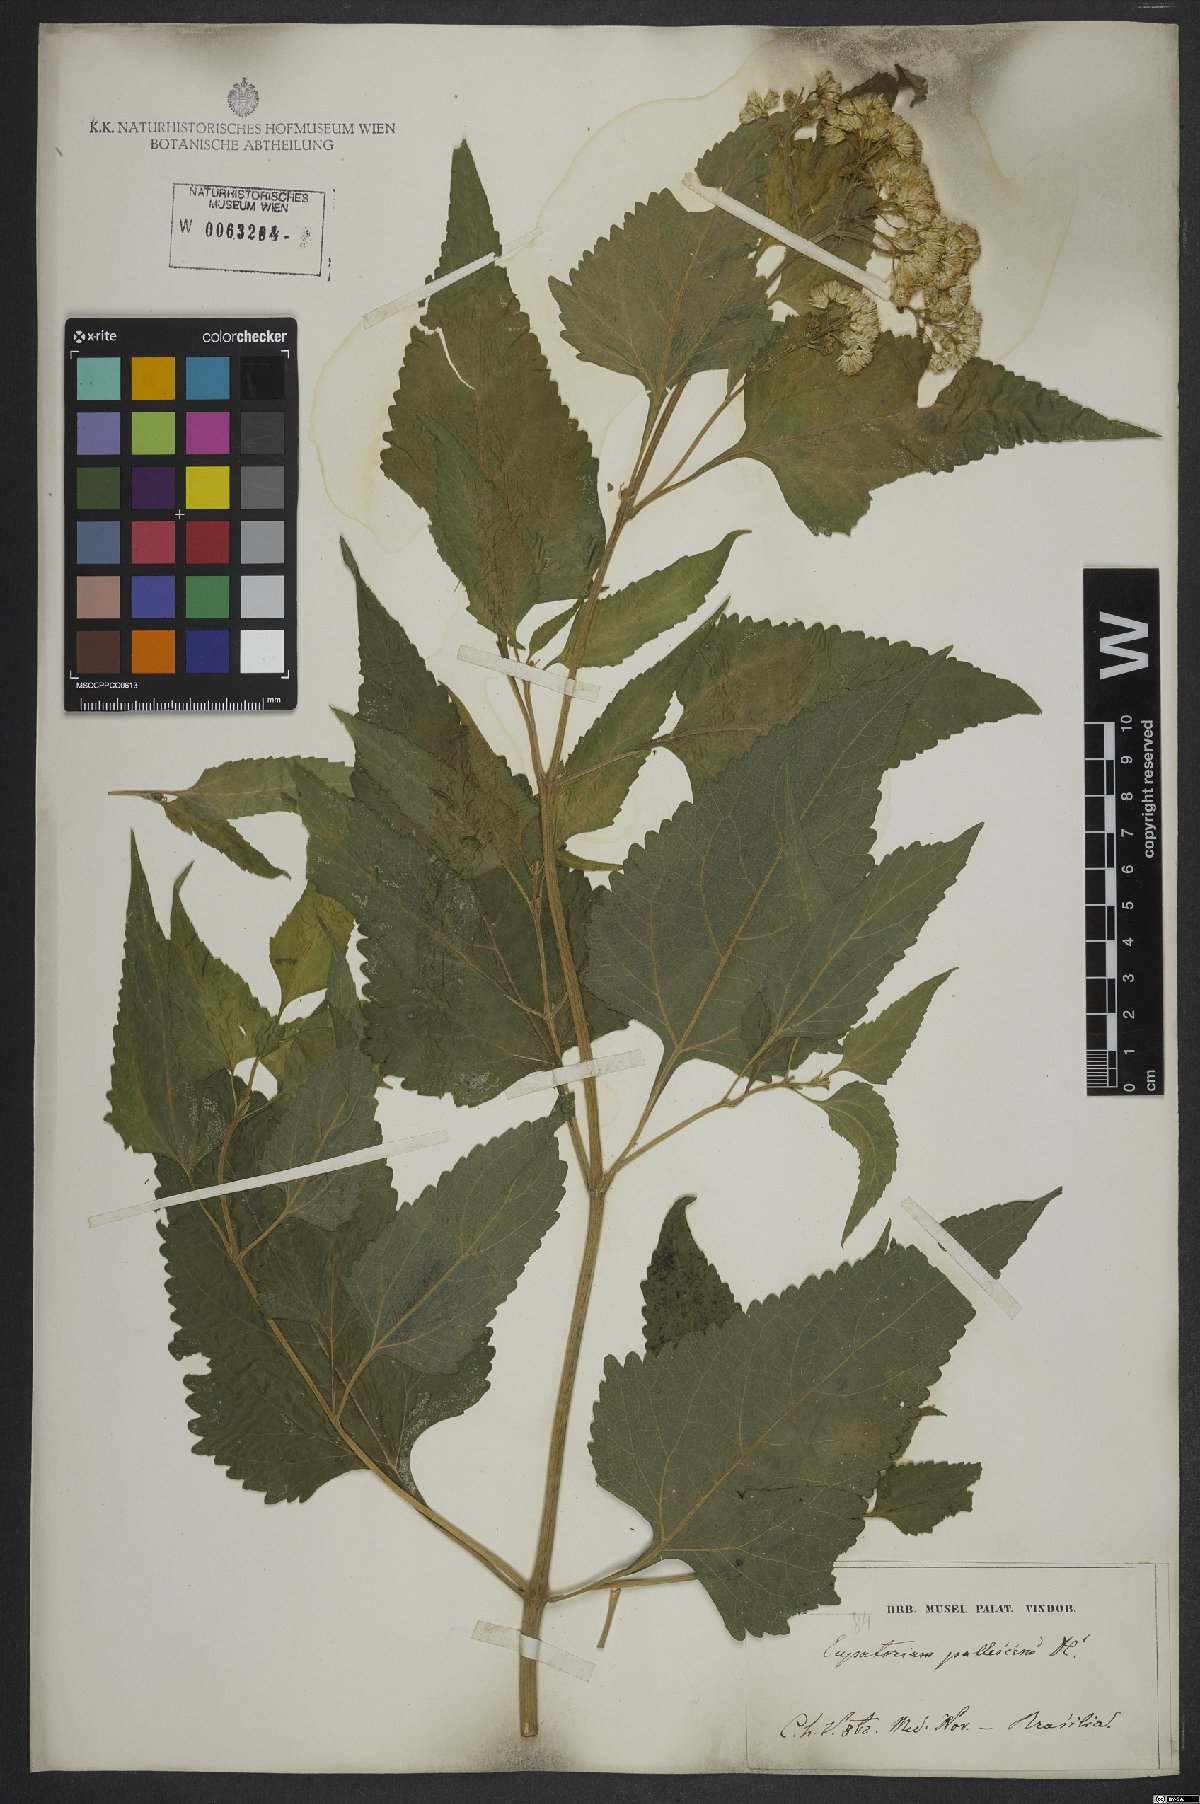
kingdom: Plantae
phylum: Tracheophyta
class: Magnoliopsida
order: Asterales
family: Asteraceae
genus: Austroeupatorium
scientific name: Austroeupatorium inulifolium
